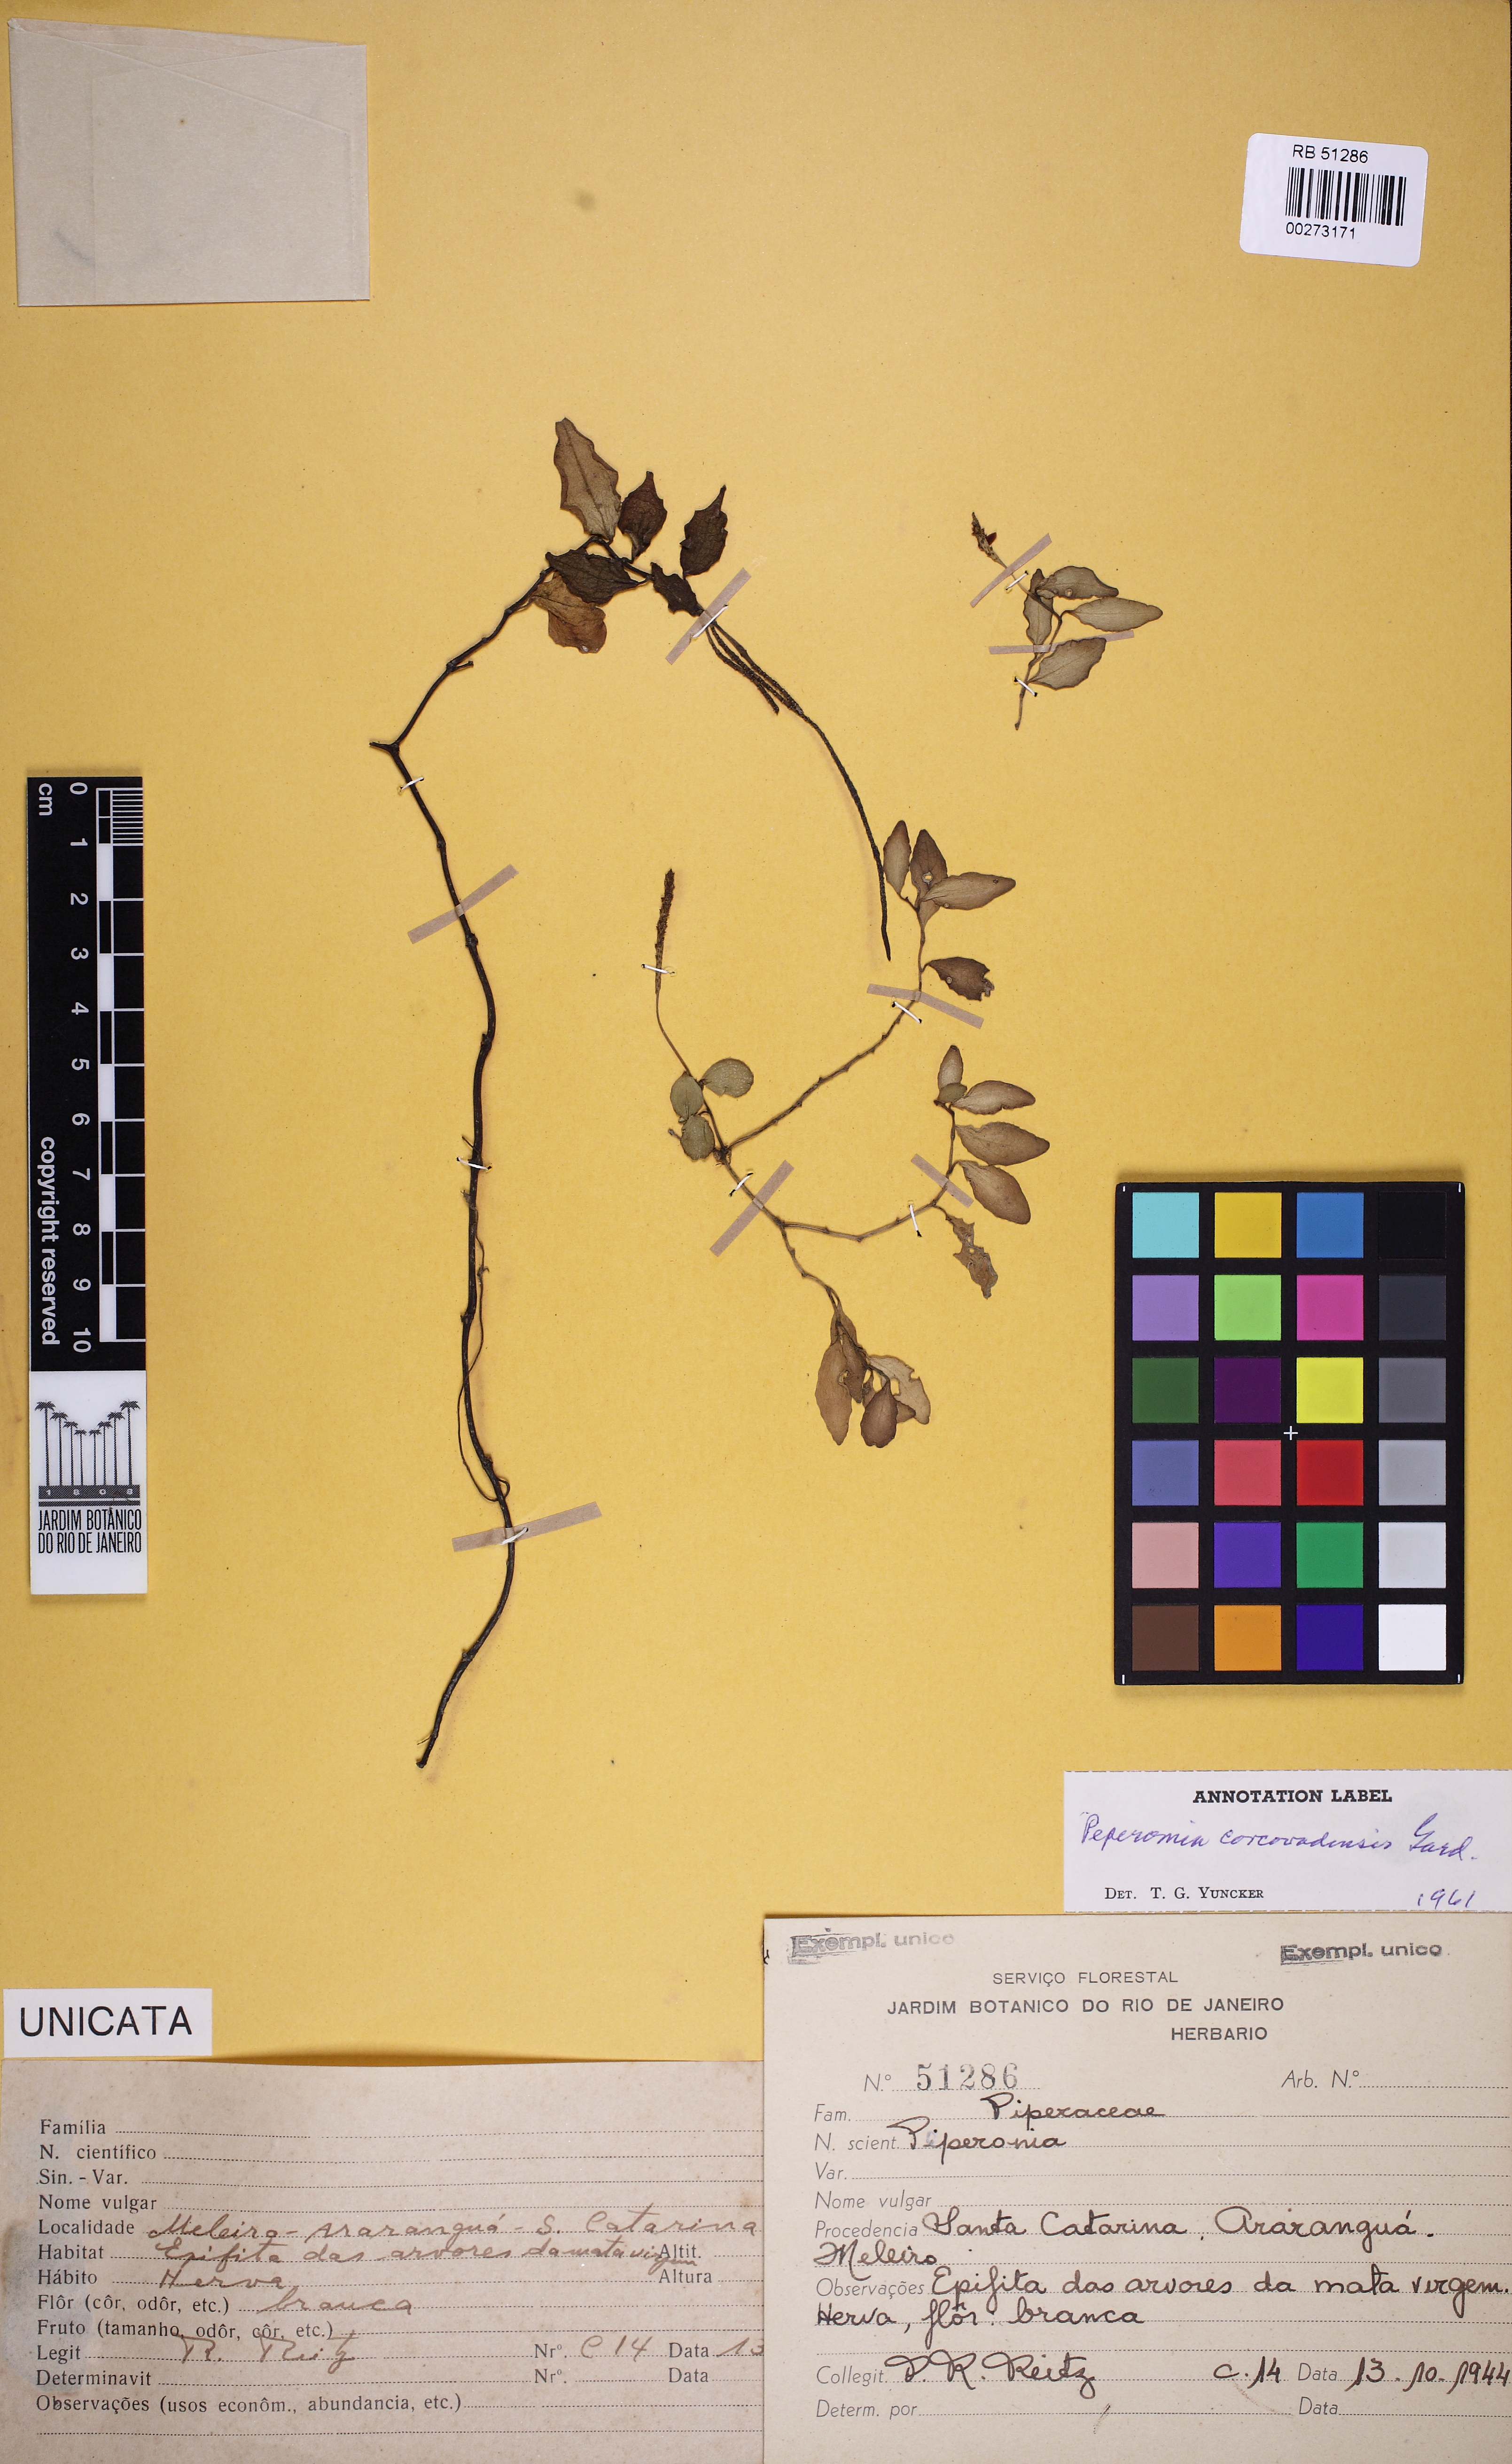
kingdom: Plantae
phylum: Tracheophyta
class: Magnoliopsida
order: Piperales
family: Piperaceae
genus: Peperomia
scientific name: Peperomia corcovadensis
